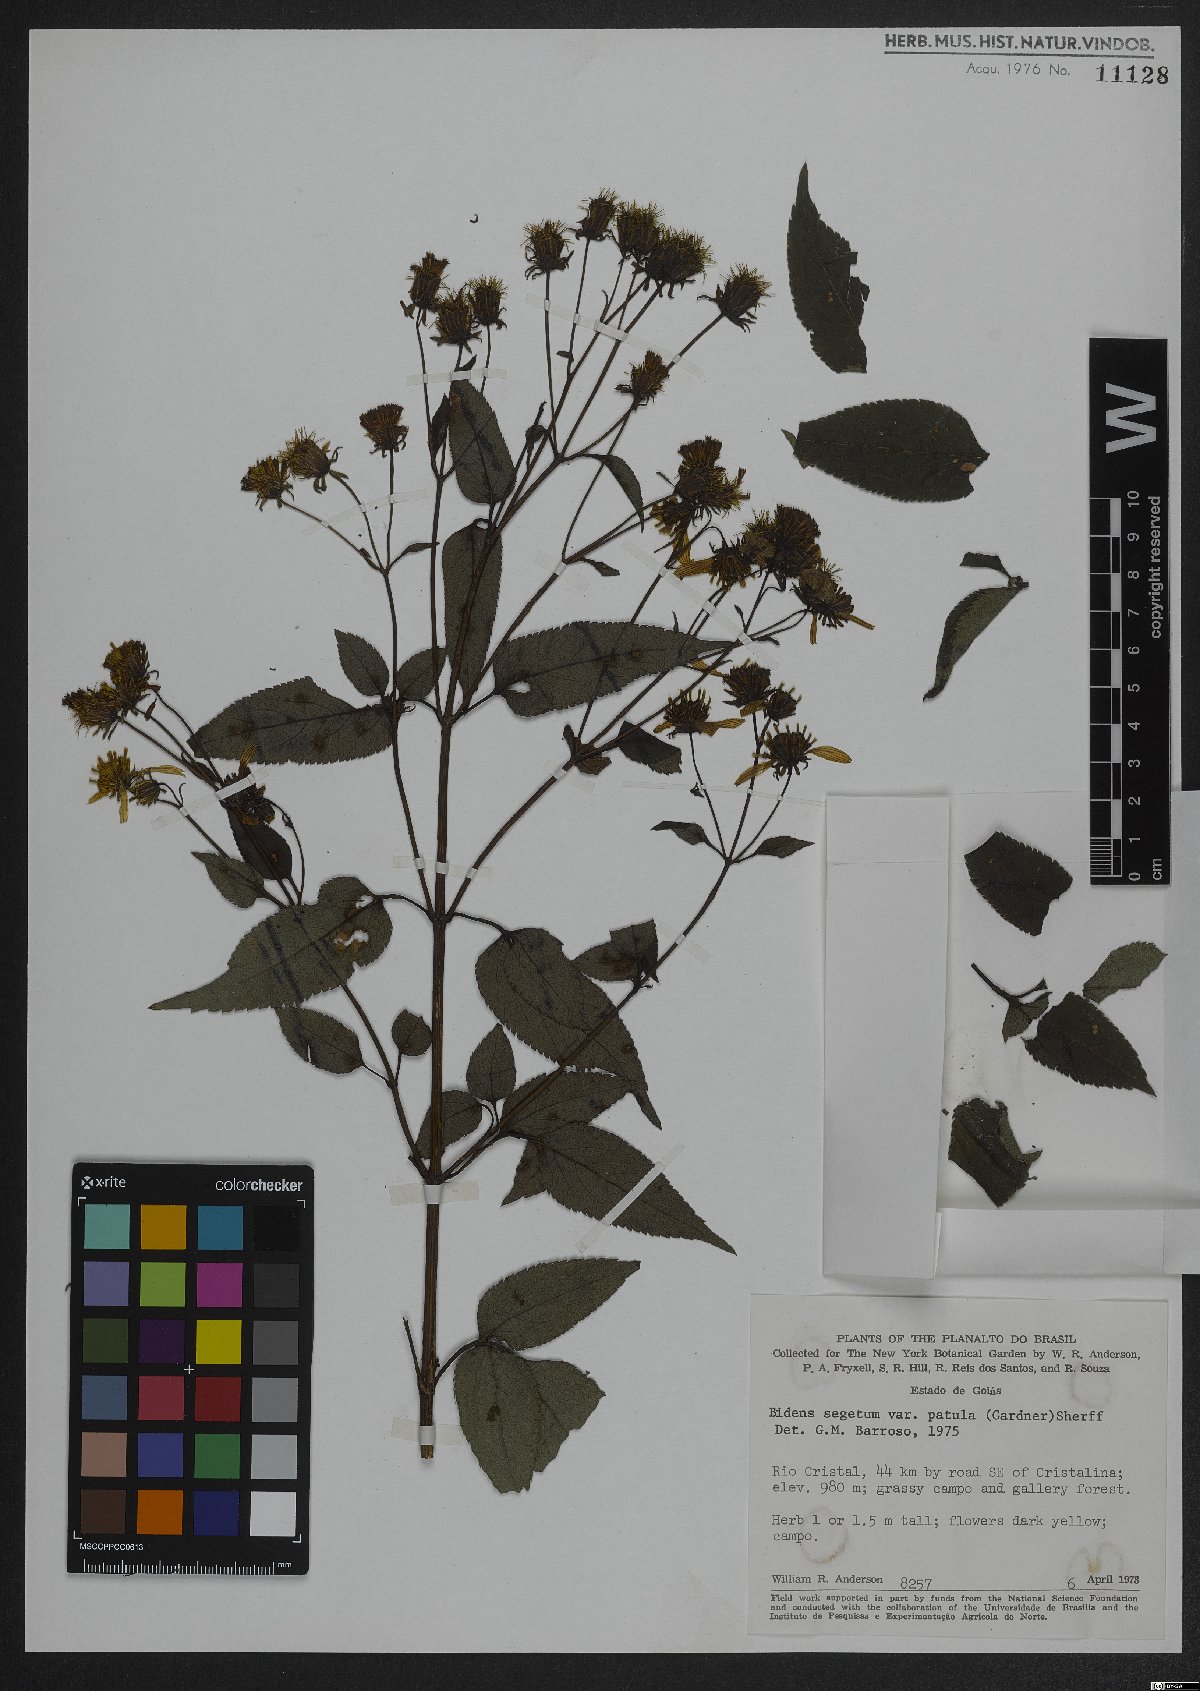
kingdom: Plantae
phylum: Tracheophyta
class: Magnoliopsida
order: Asterales
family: Asteraceae
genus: Bidens
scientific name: Bidens segetum
